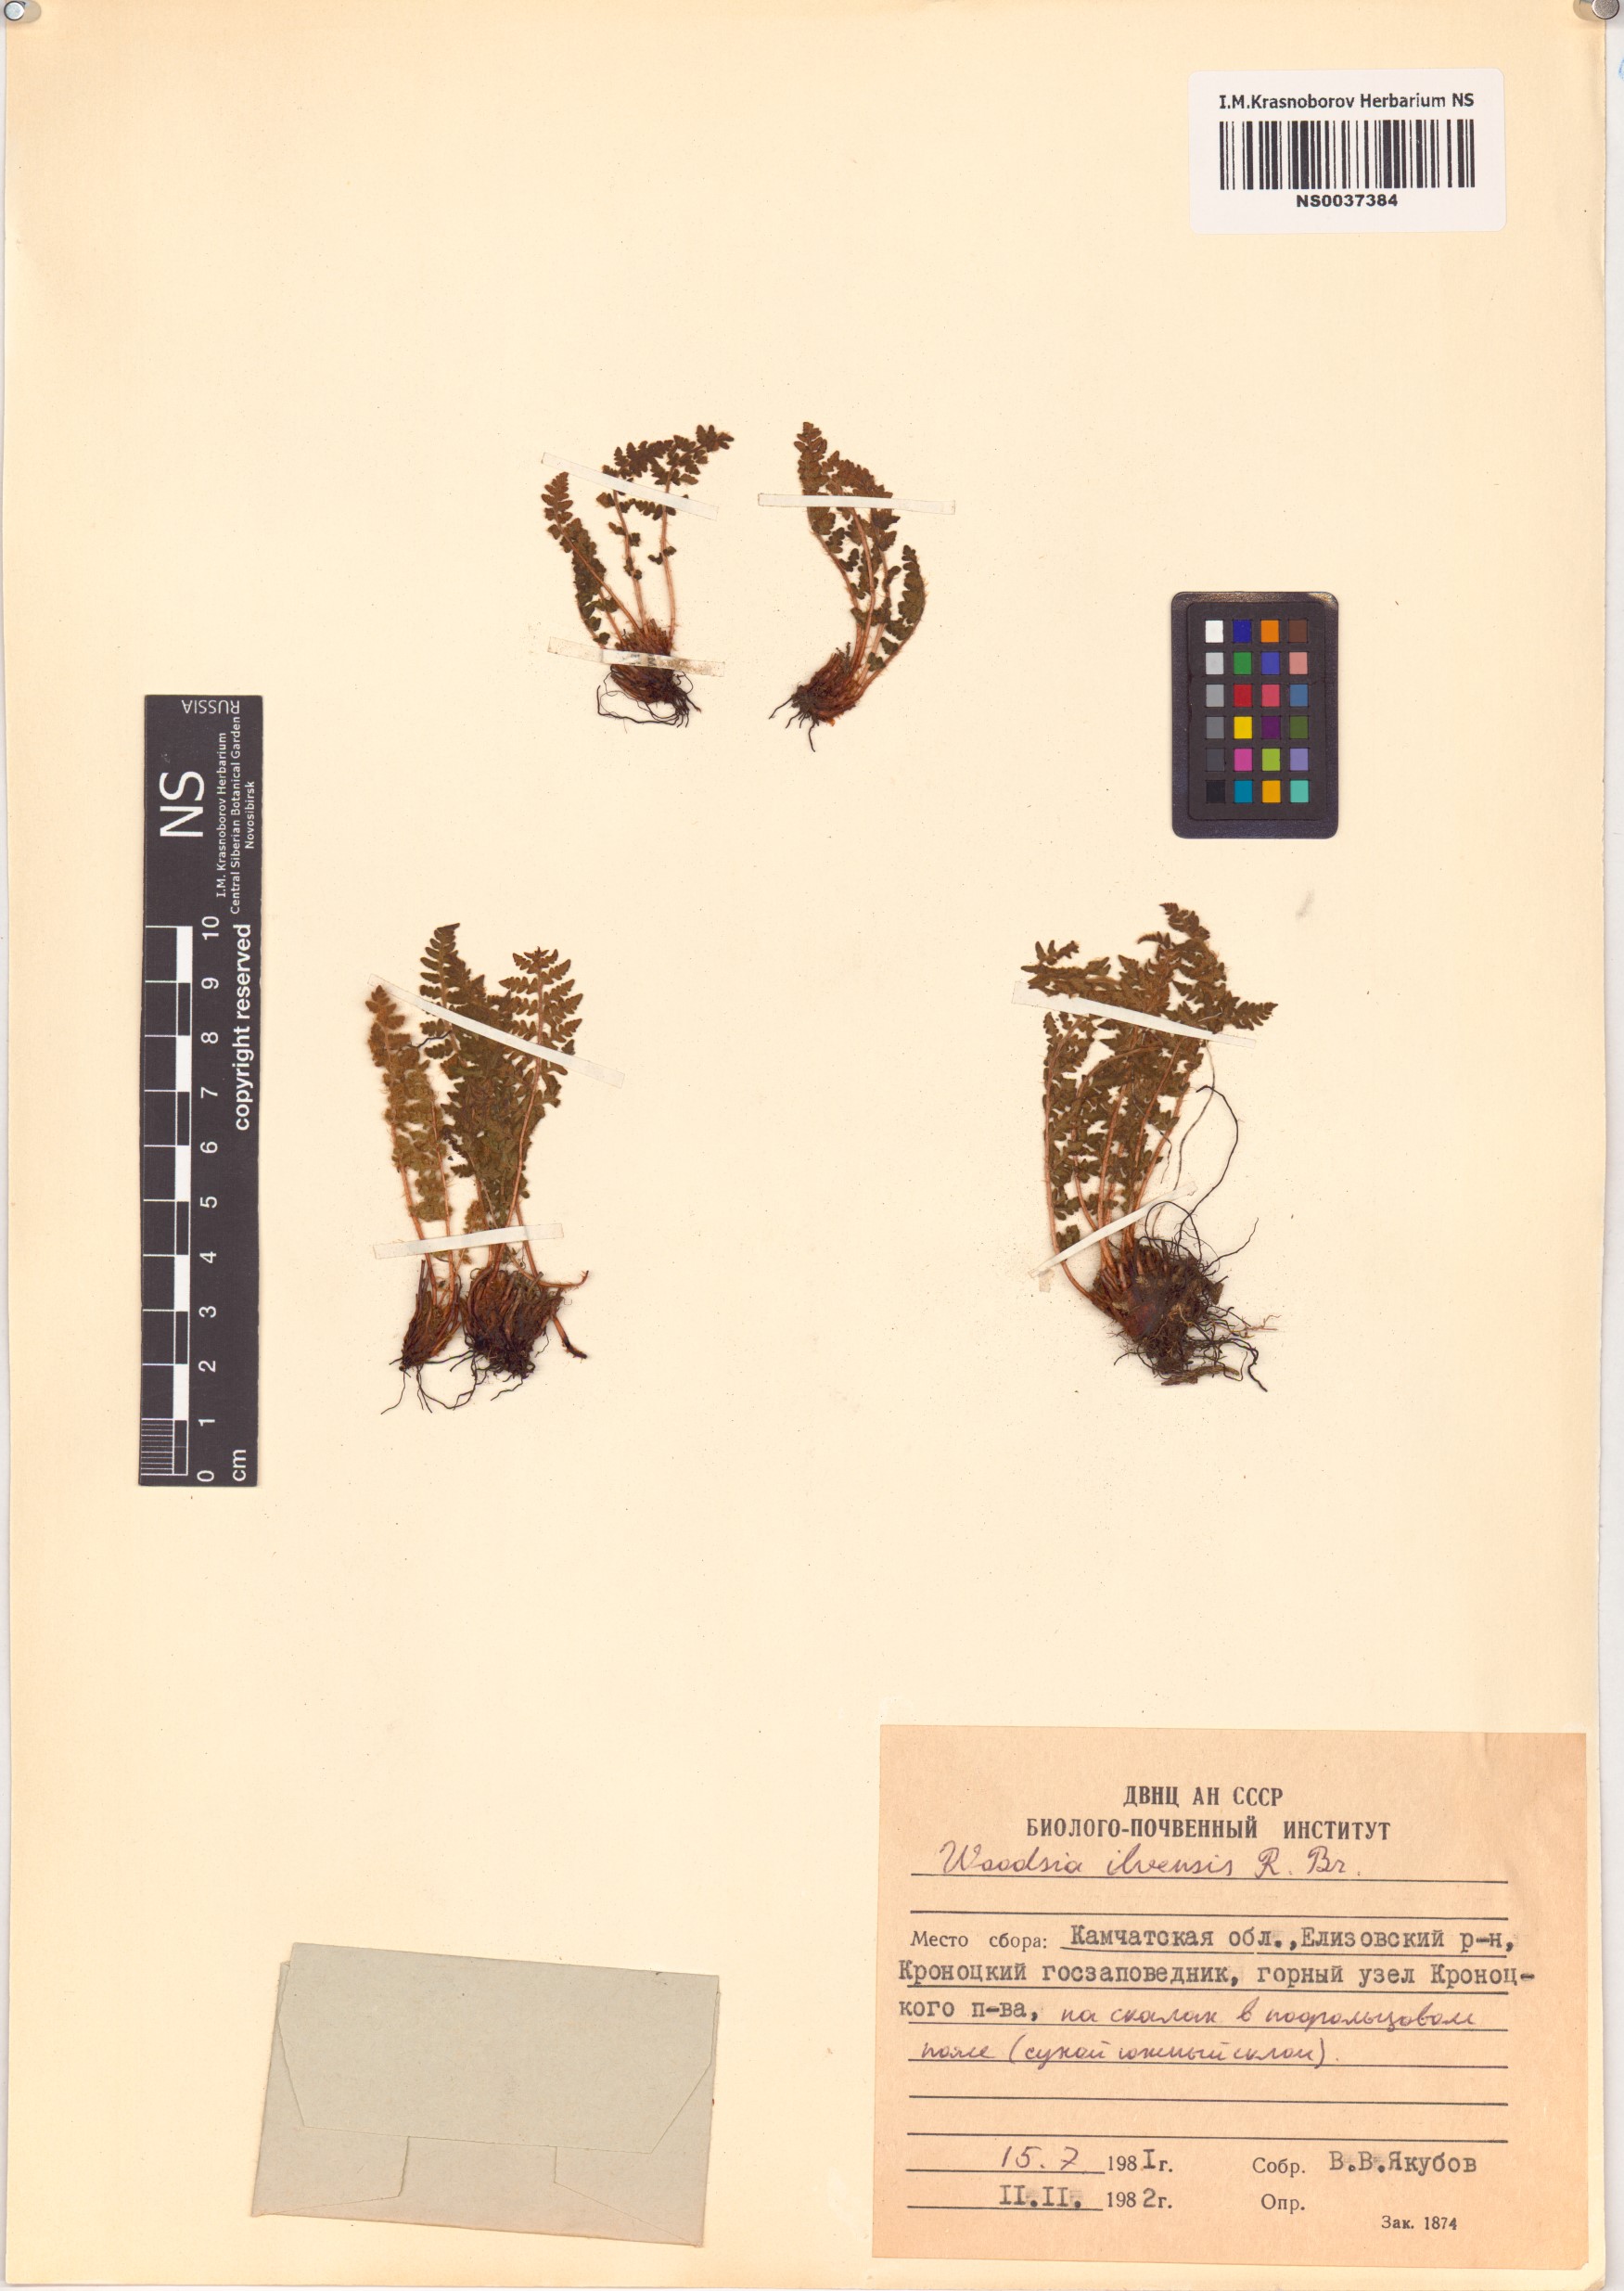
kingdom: Plantae
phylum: Tracheophyta
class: Polypodiopsida
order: Polypodiales
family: Woodsiaceae
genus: Woodsia
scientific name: Woodsia ilvensis
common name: Fragrant woodsia
